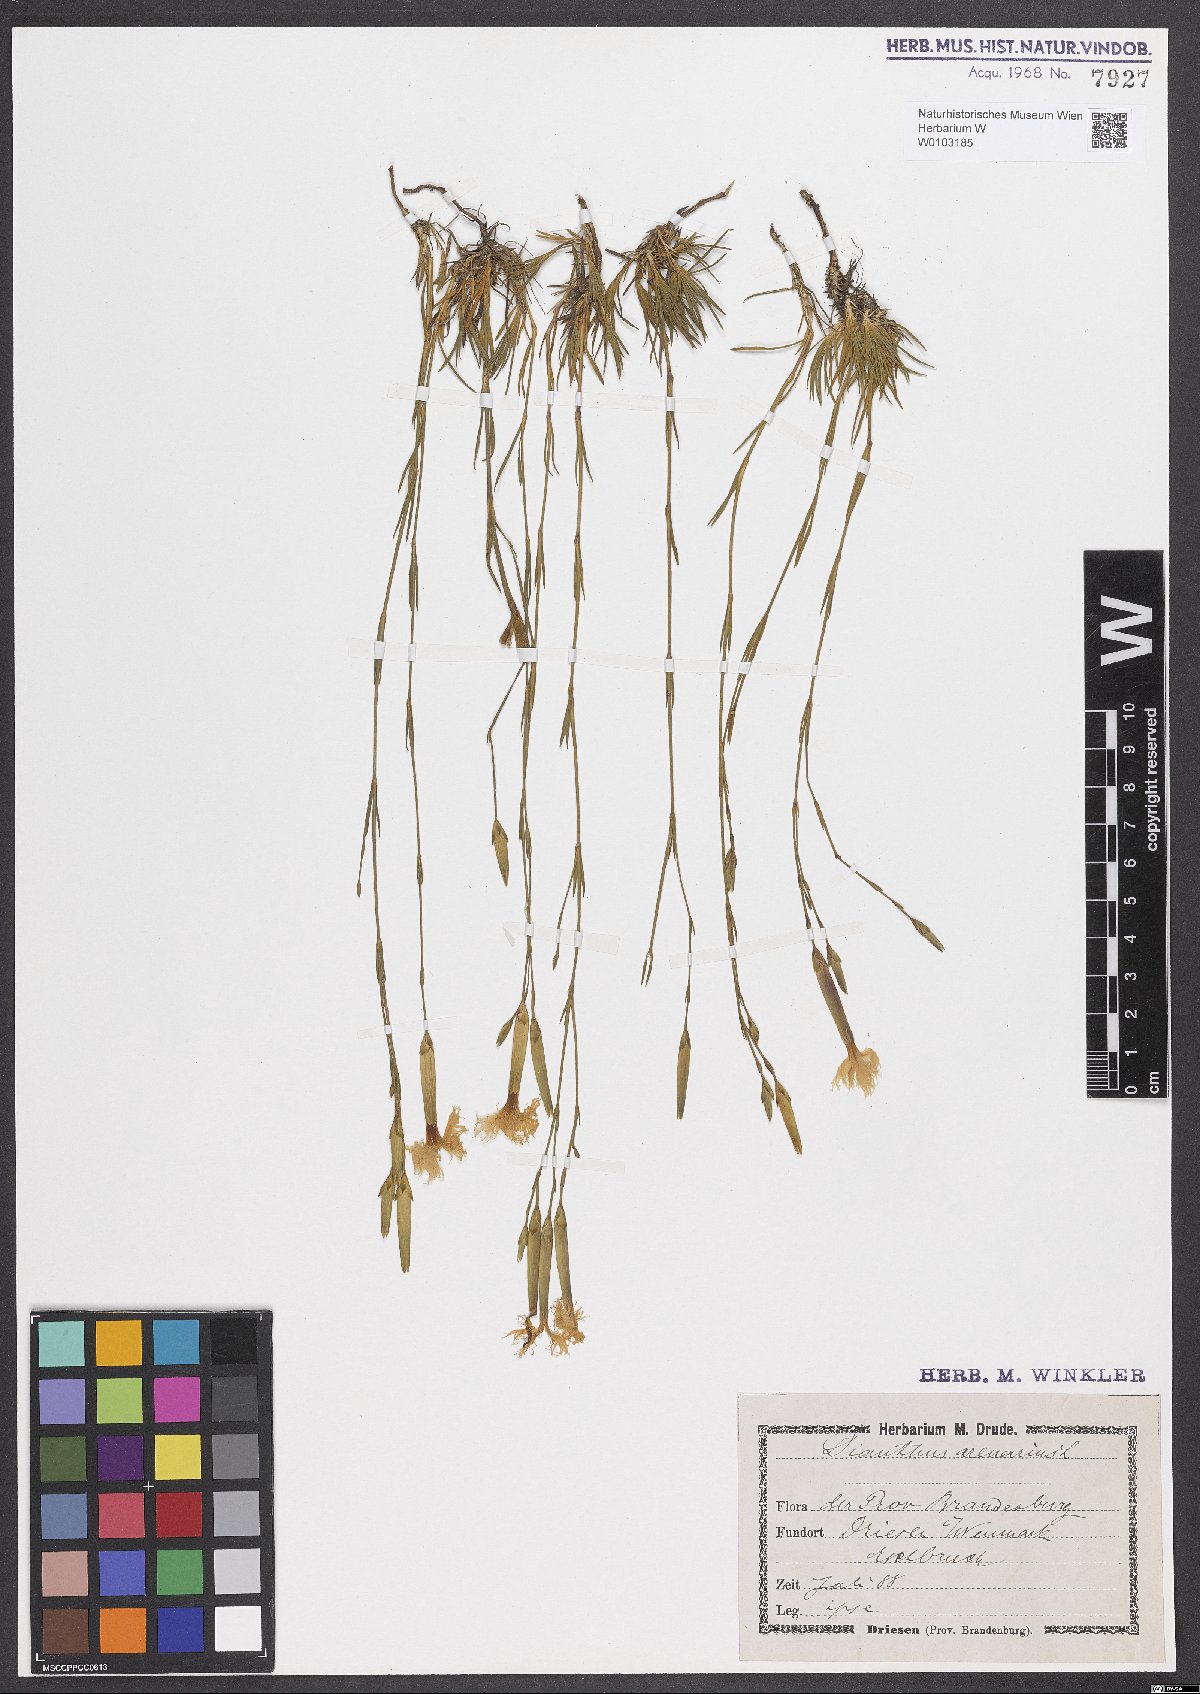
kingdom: Plantae
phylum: Tracheophyta
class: Magnoliopsida
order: Caryophyllales
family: Caryophyllaceae
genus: Dianthus
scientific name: Dianthus arenarius
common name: Stone pink
